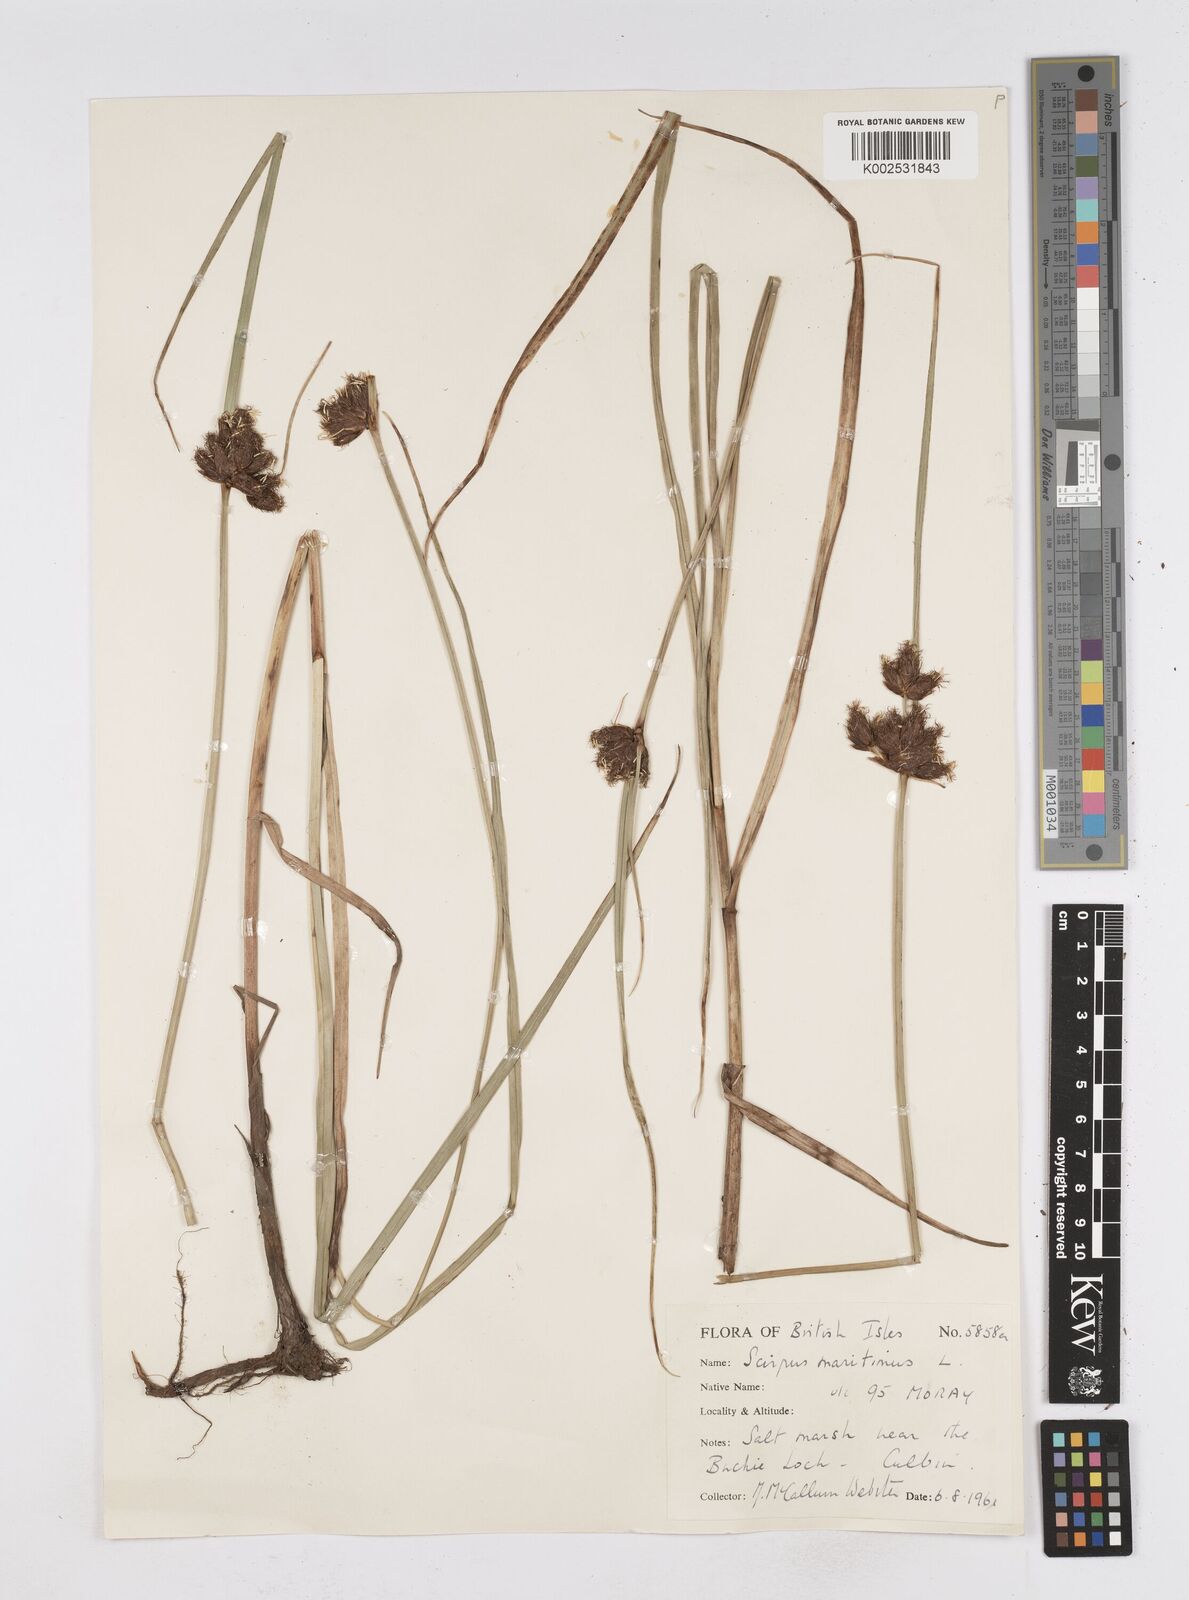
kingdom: Plantae
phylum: Tracheophyta
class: Liliopsida
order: Poales
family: Cyperaceae
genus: Bolboschoenus
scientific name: Bolboschoenus maritimus
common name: Sea club-rush
